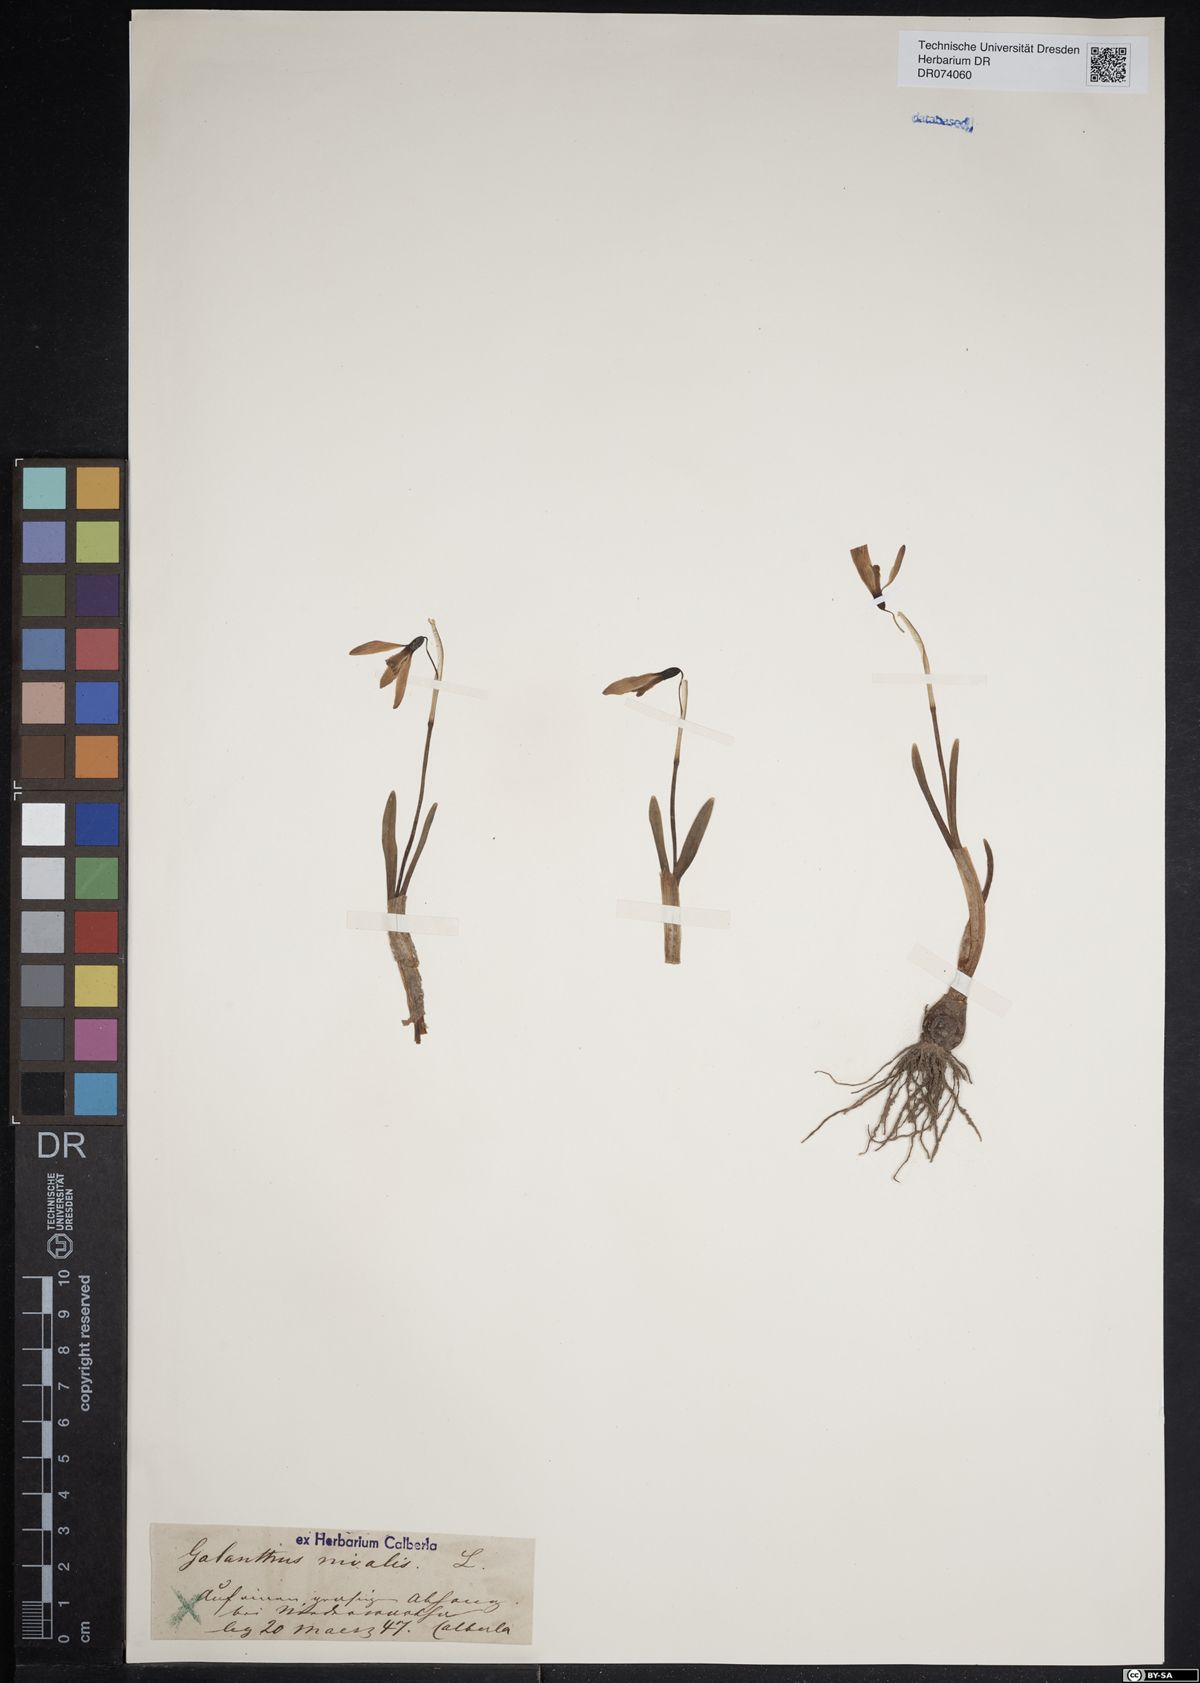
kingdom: Plantae
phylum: Tracheophyta
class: Liliopsida
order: Asparagales
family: Amaryllidaceae
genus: Galanthus
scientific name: Galanthus nivalis
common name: Snowdrop
